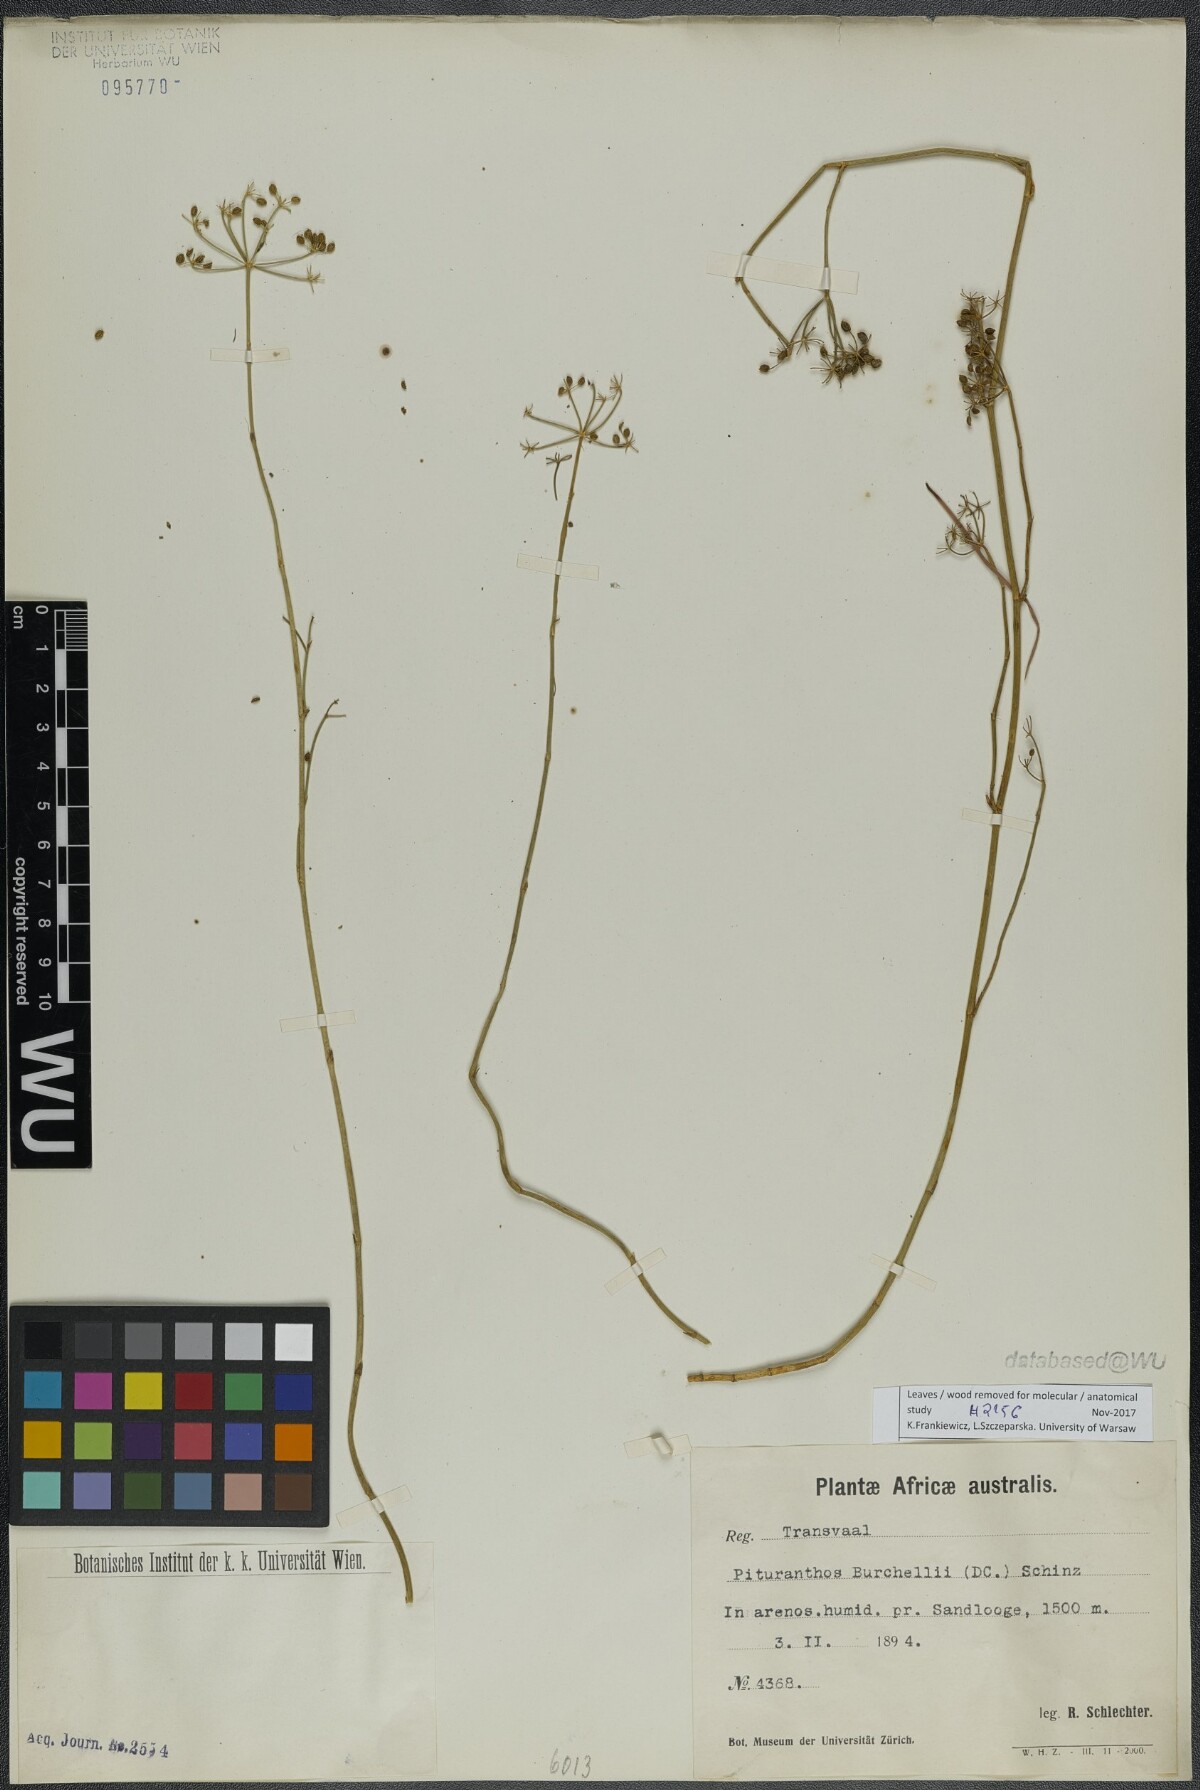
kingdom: Plantae
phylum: Tracheophyta
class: Magnoliopsida
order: Apiales
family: Apiaceae
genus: Deverra
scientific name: Deverra burchellii
